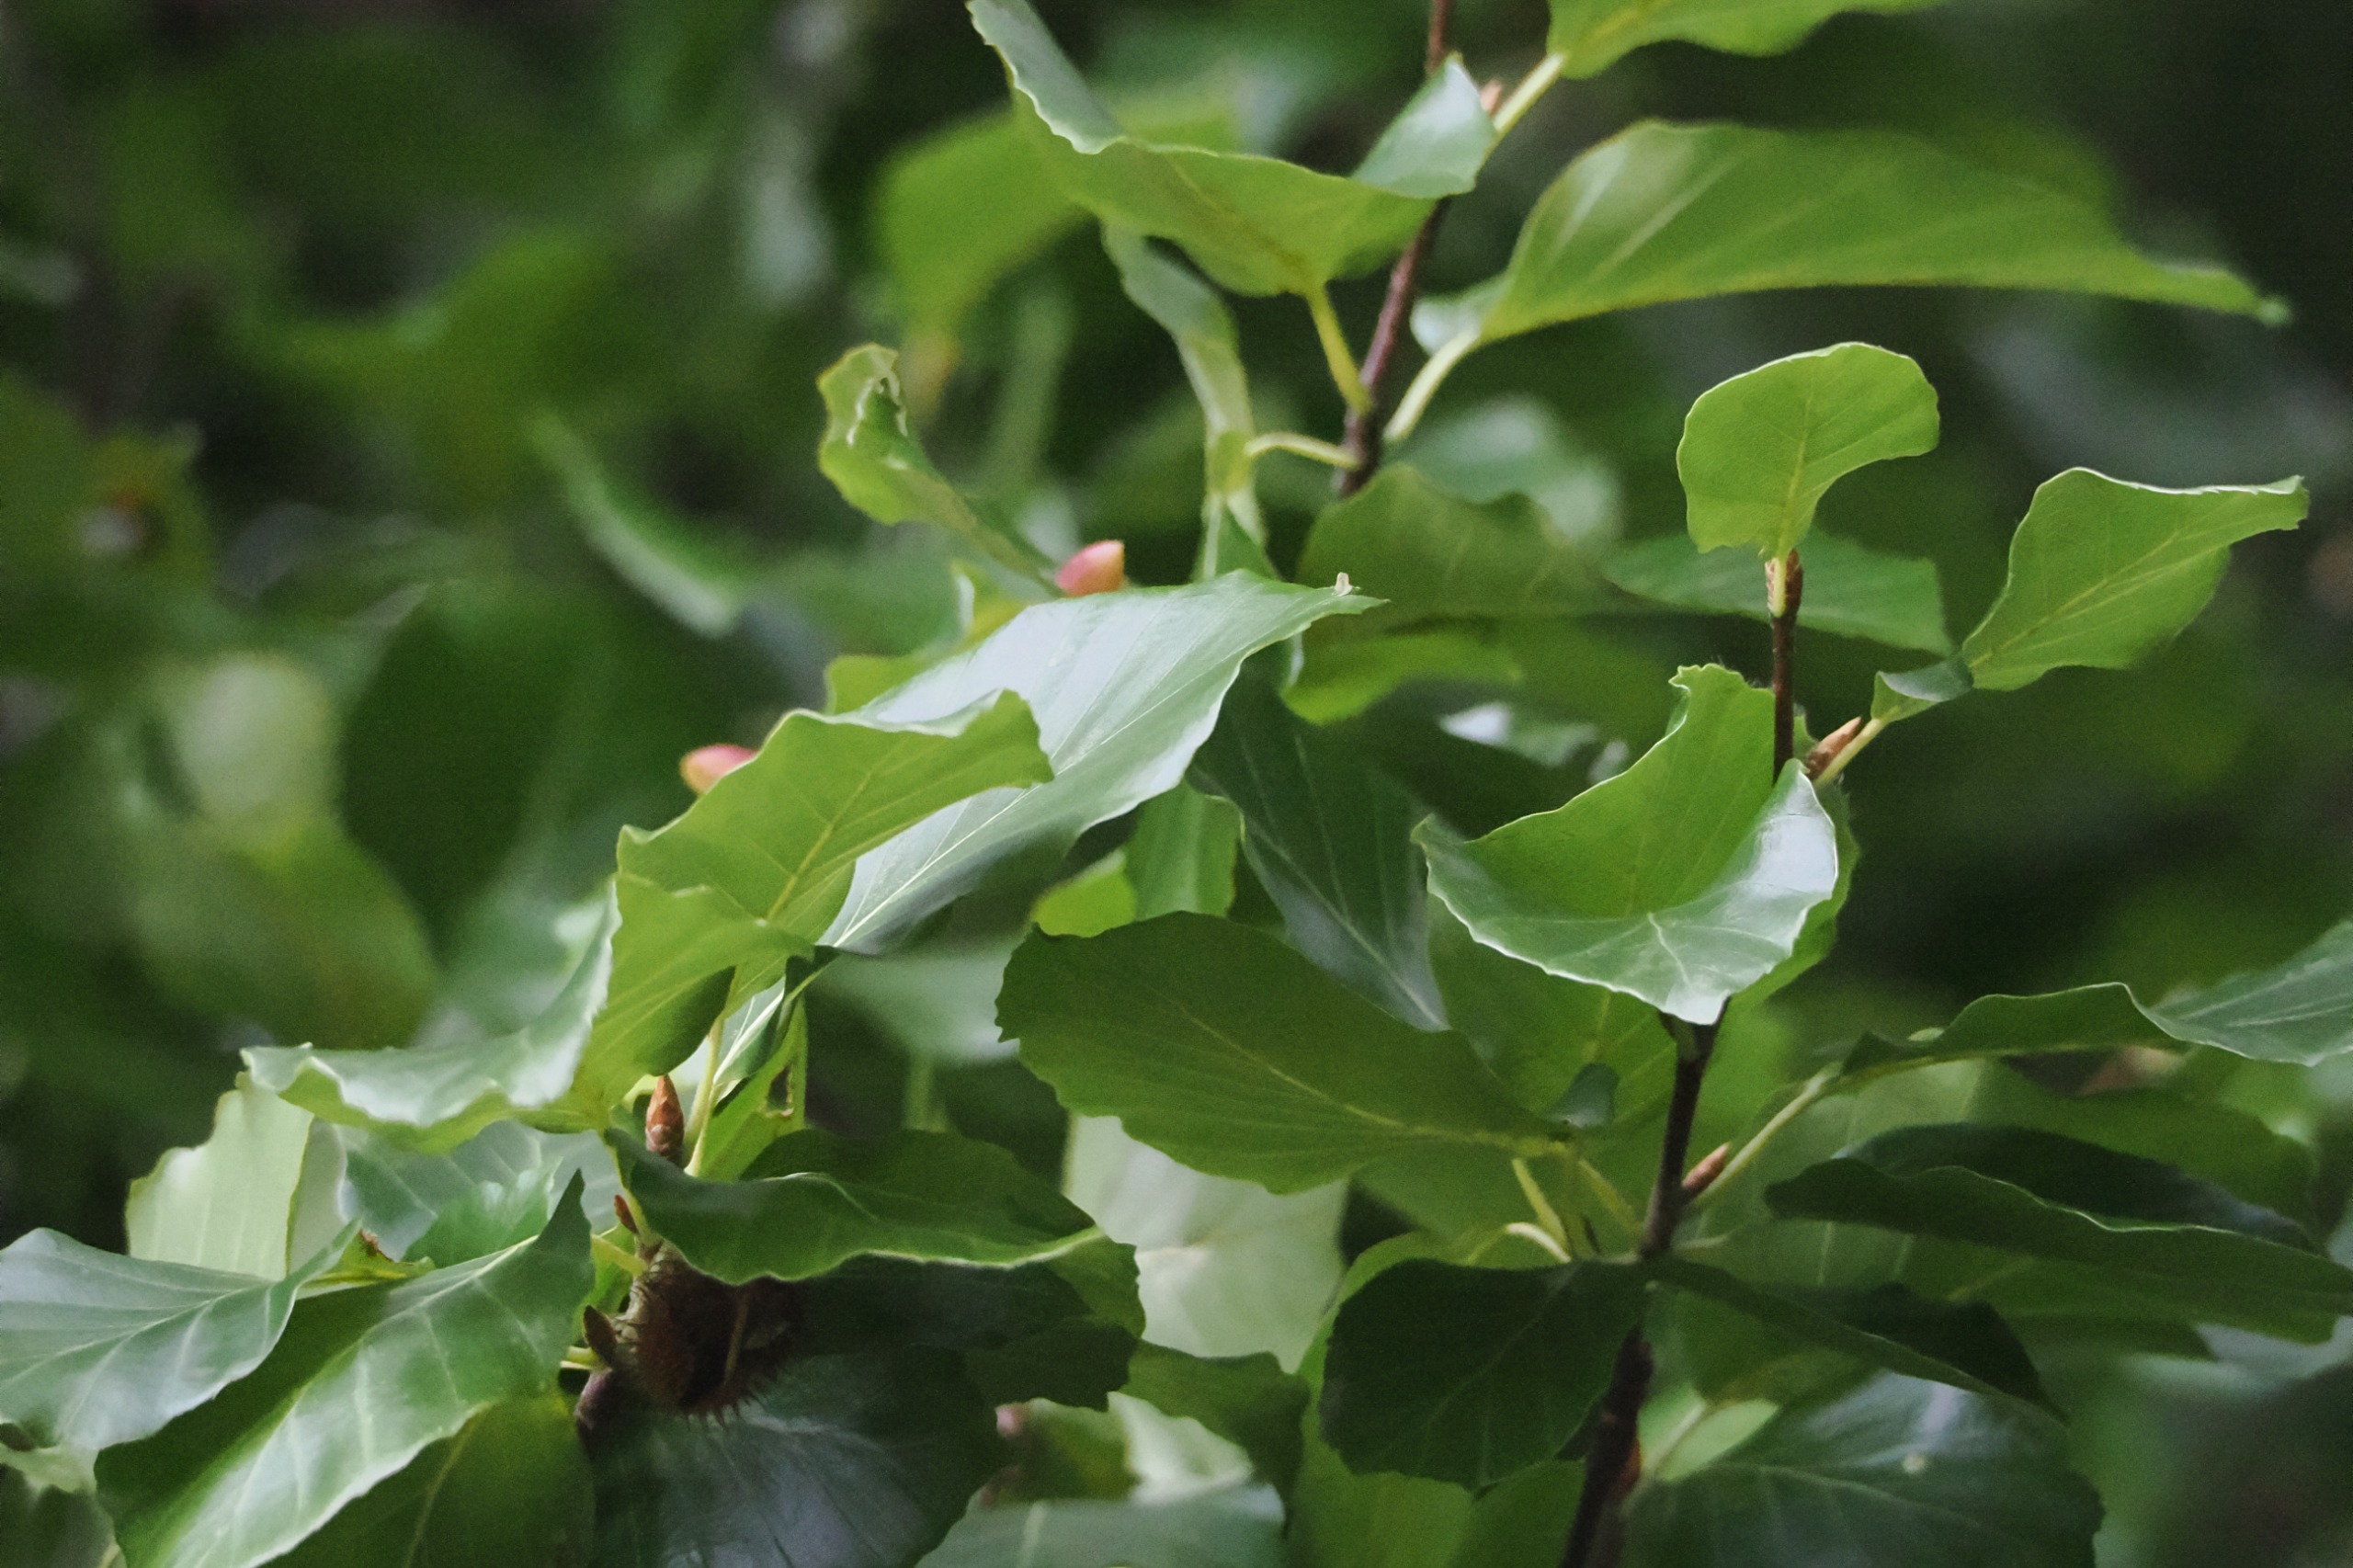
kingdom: Plantae
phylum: Tracheophyta
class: Magnoliopsida
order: Fagales
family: Fagaceae
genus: Fagus
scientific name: Fagus sylvatica
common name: Bøg
